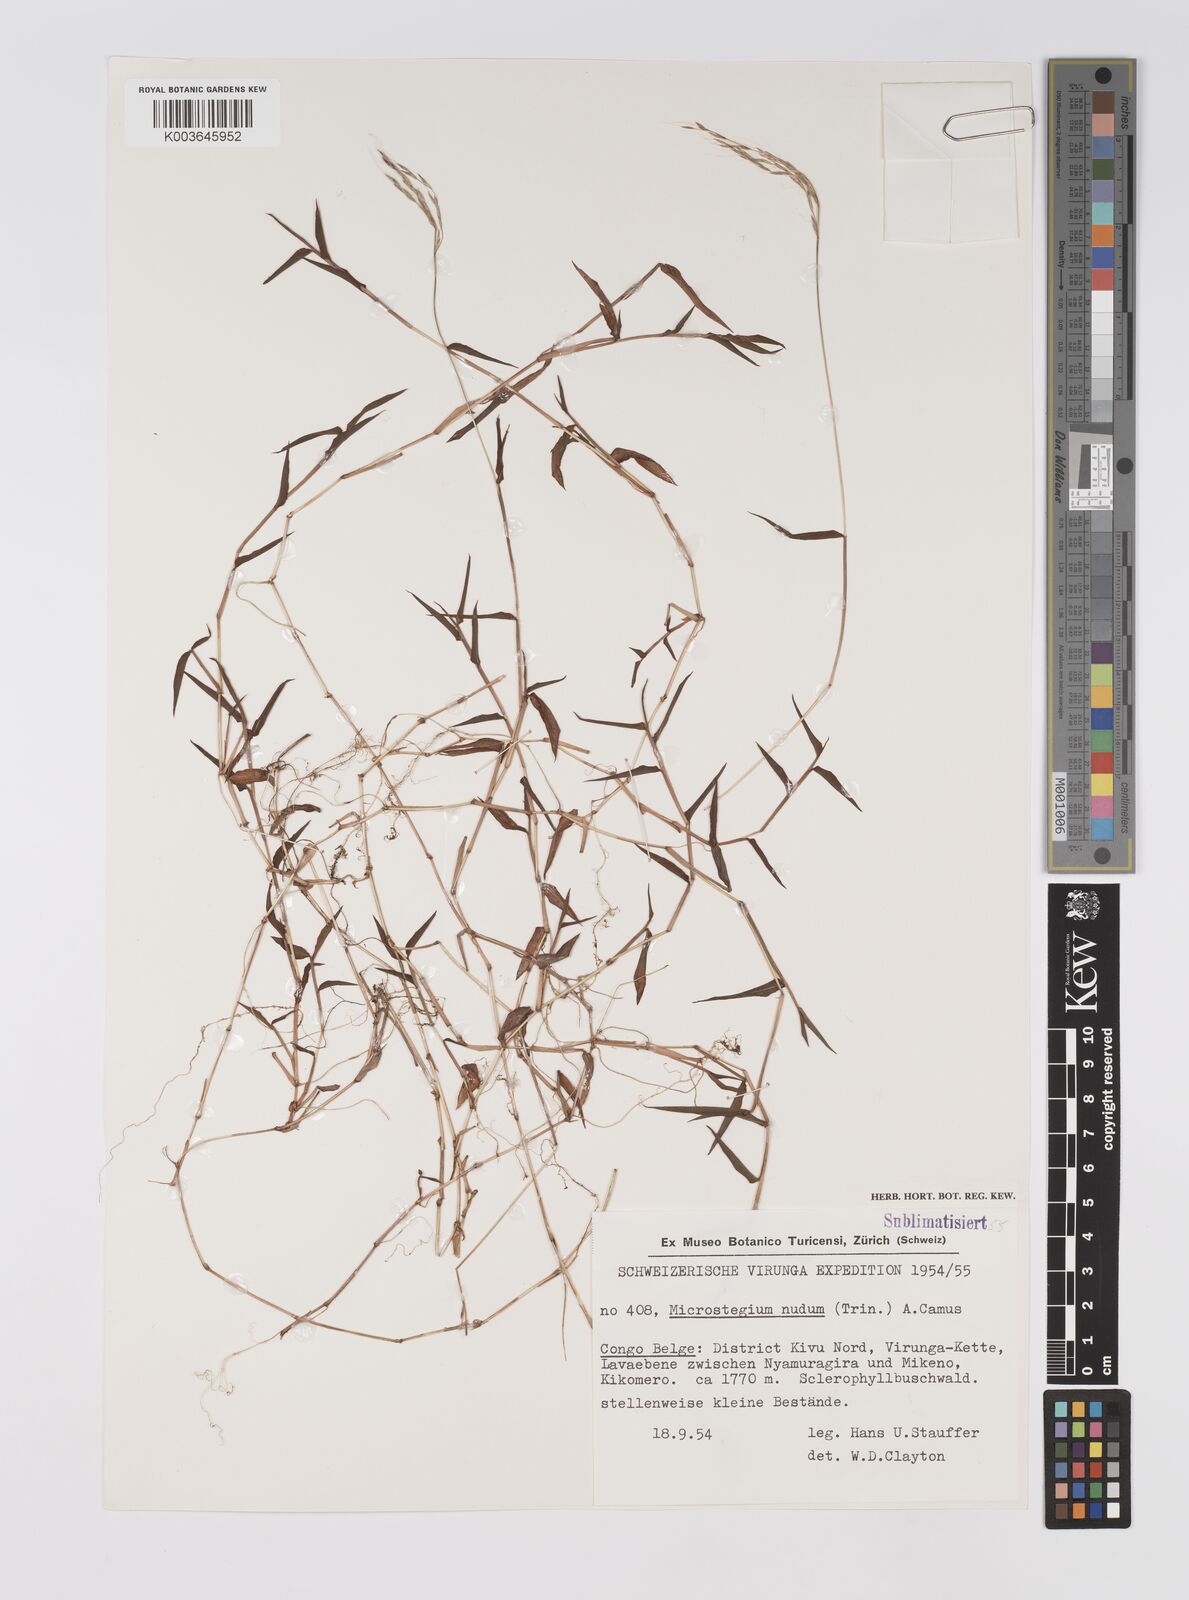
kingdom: Plantae
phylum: Tracheophyta
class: Liliopsida
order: Poales
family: Poaceae
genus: Microstegium
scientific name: Microstegium nudum
